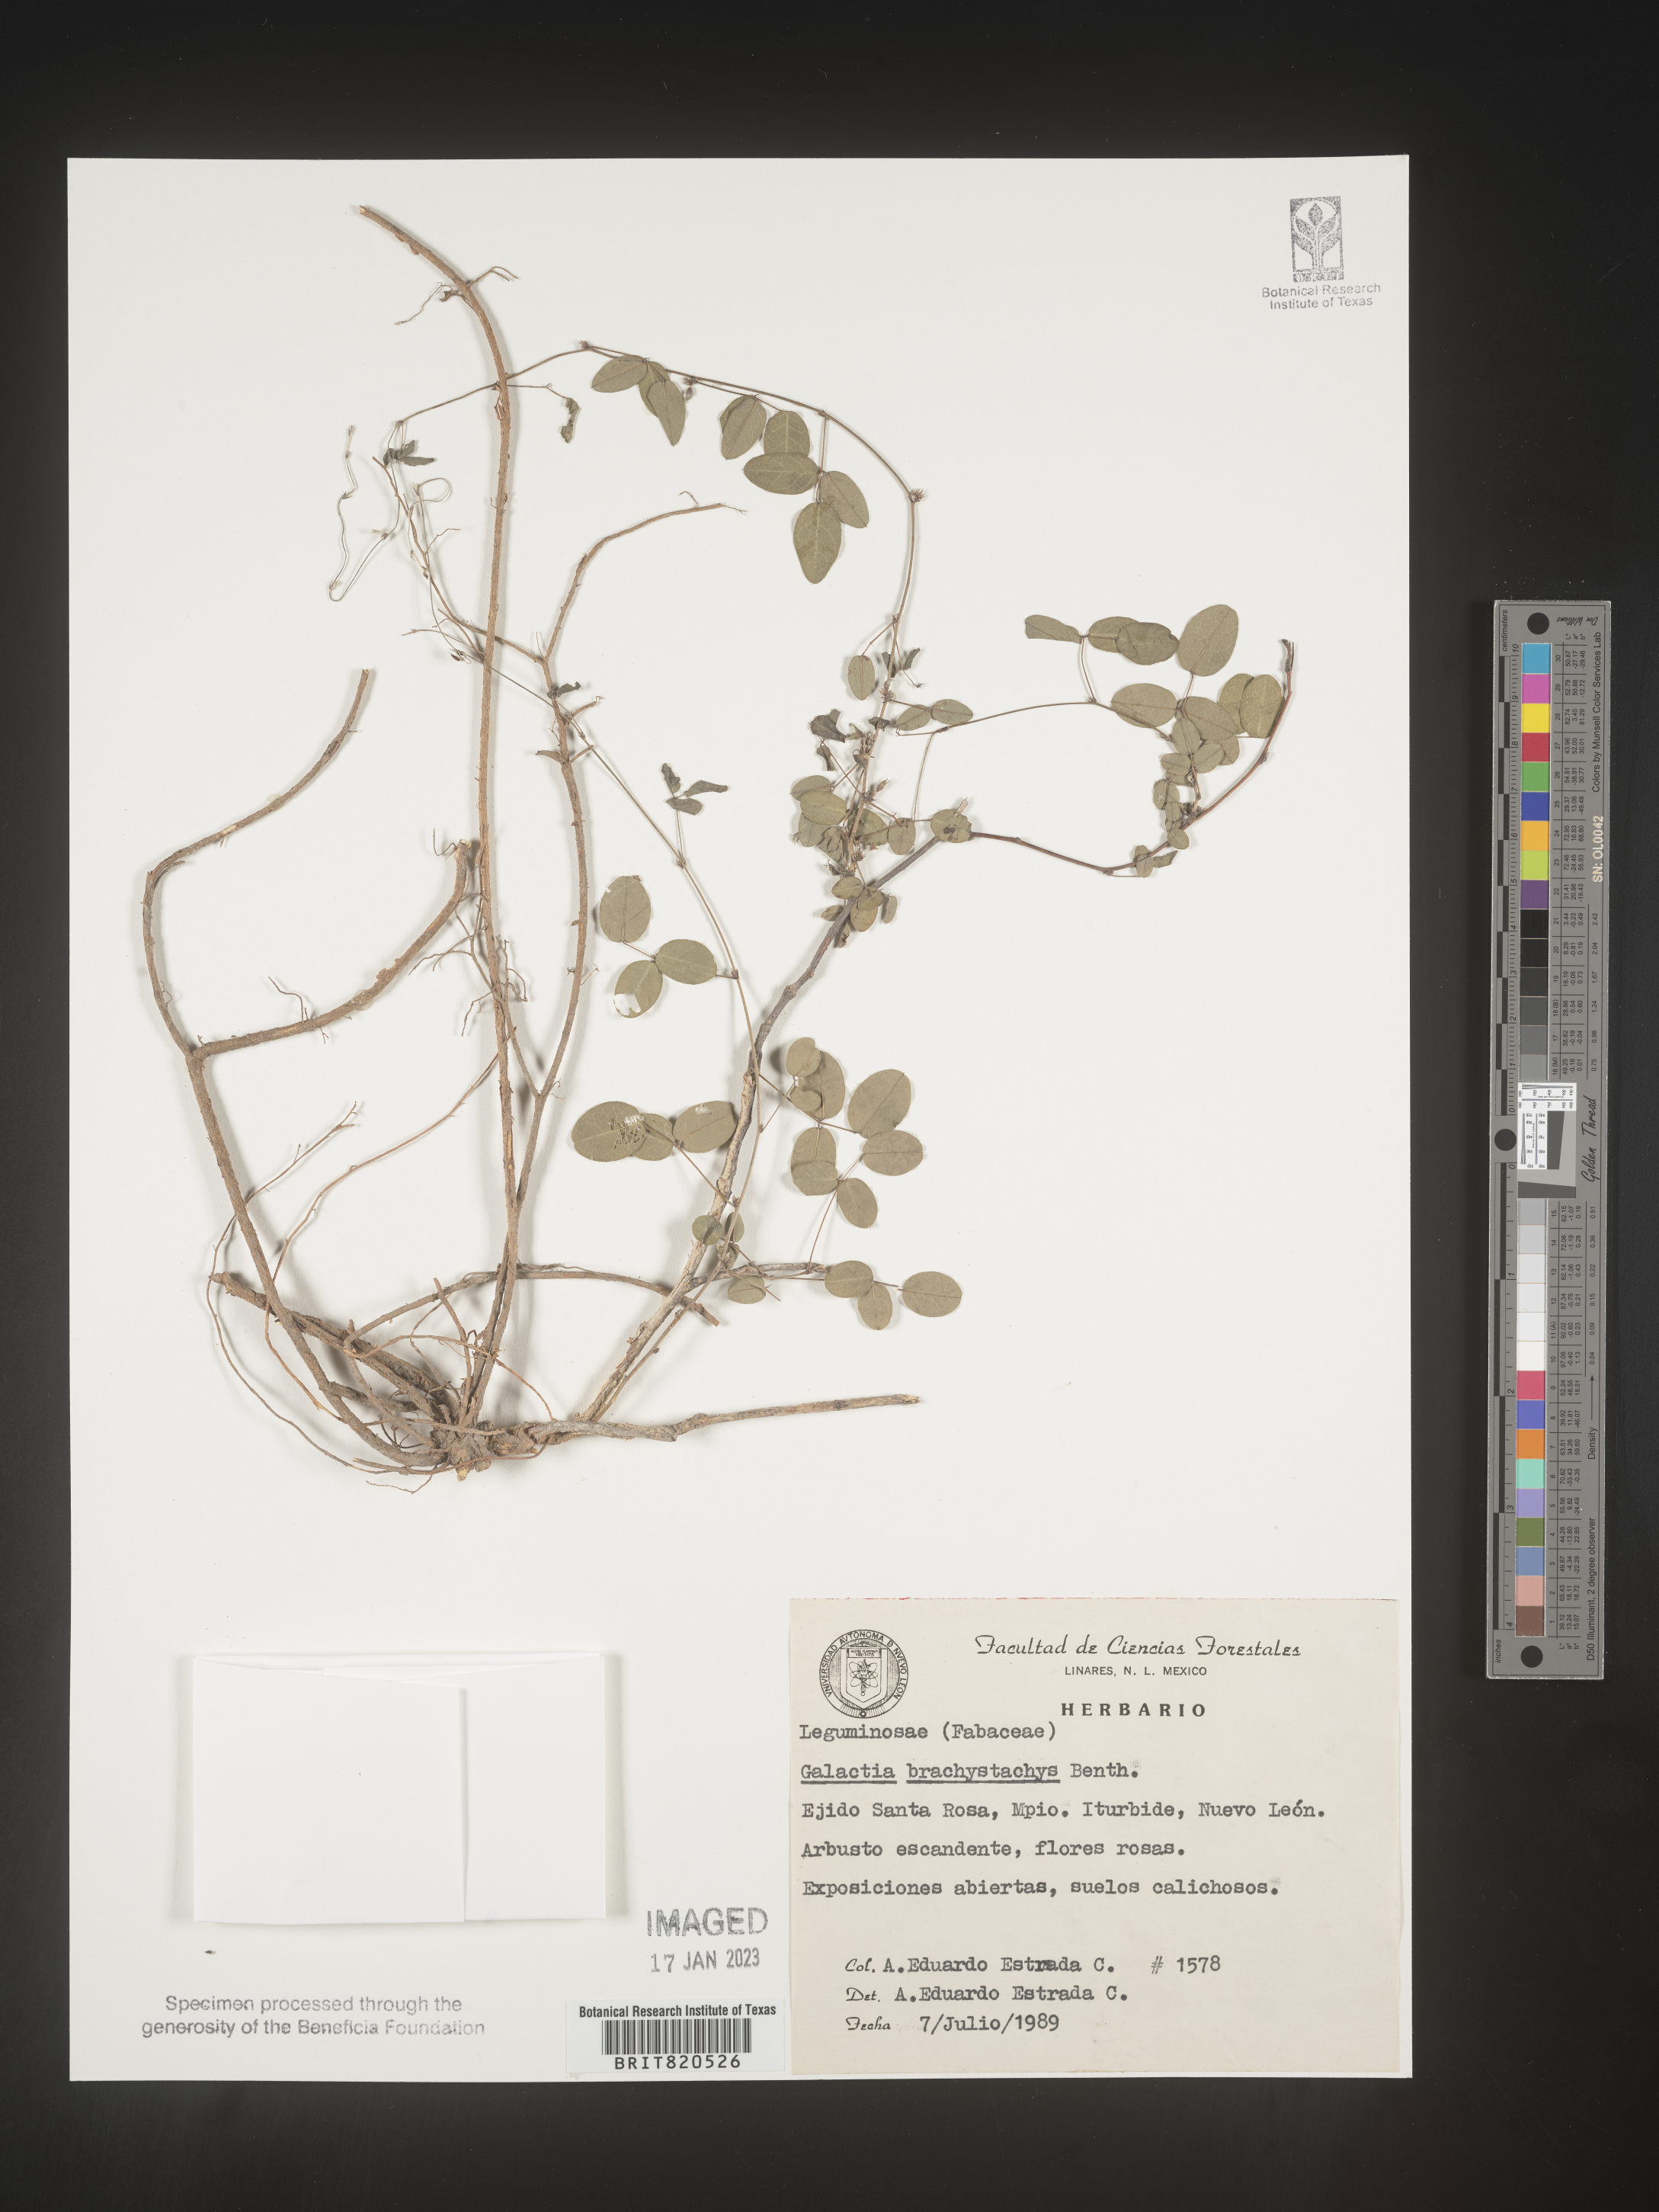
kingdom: Plantae
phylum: Tracheophyta
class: Magnoliopsida
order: Fabales
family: Fabaceae
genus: Nanogalactia
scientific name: Nanogalactia brachystachys
